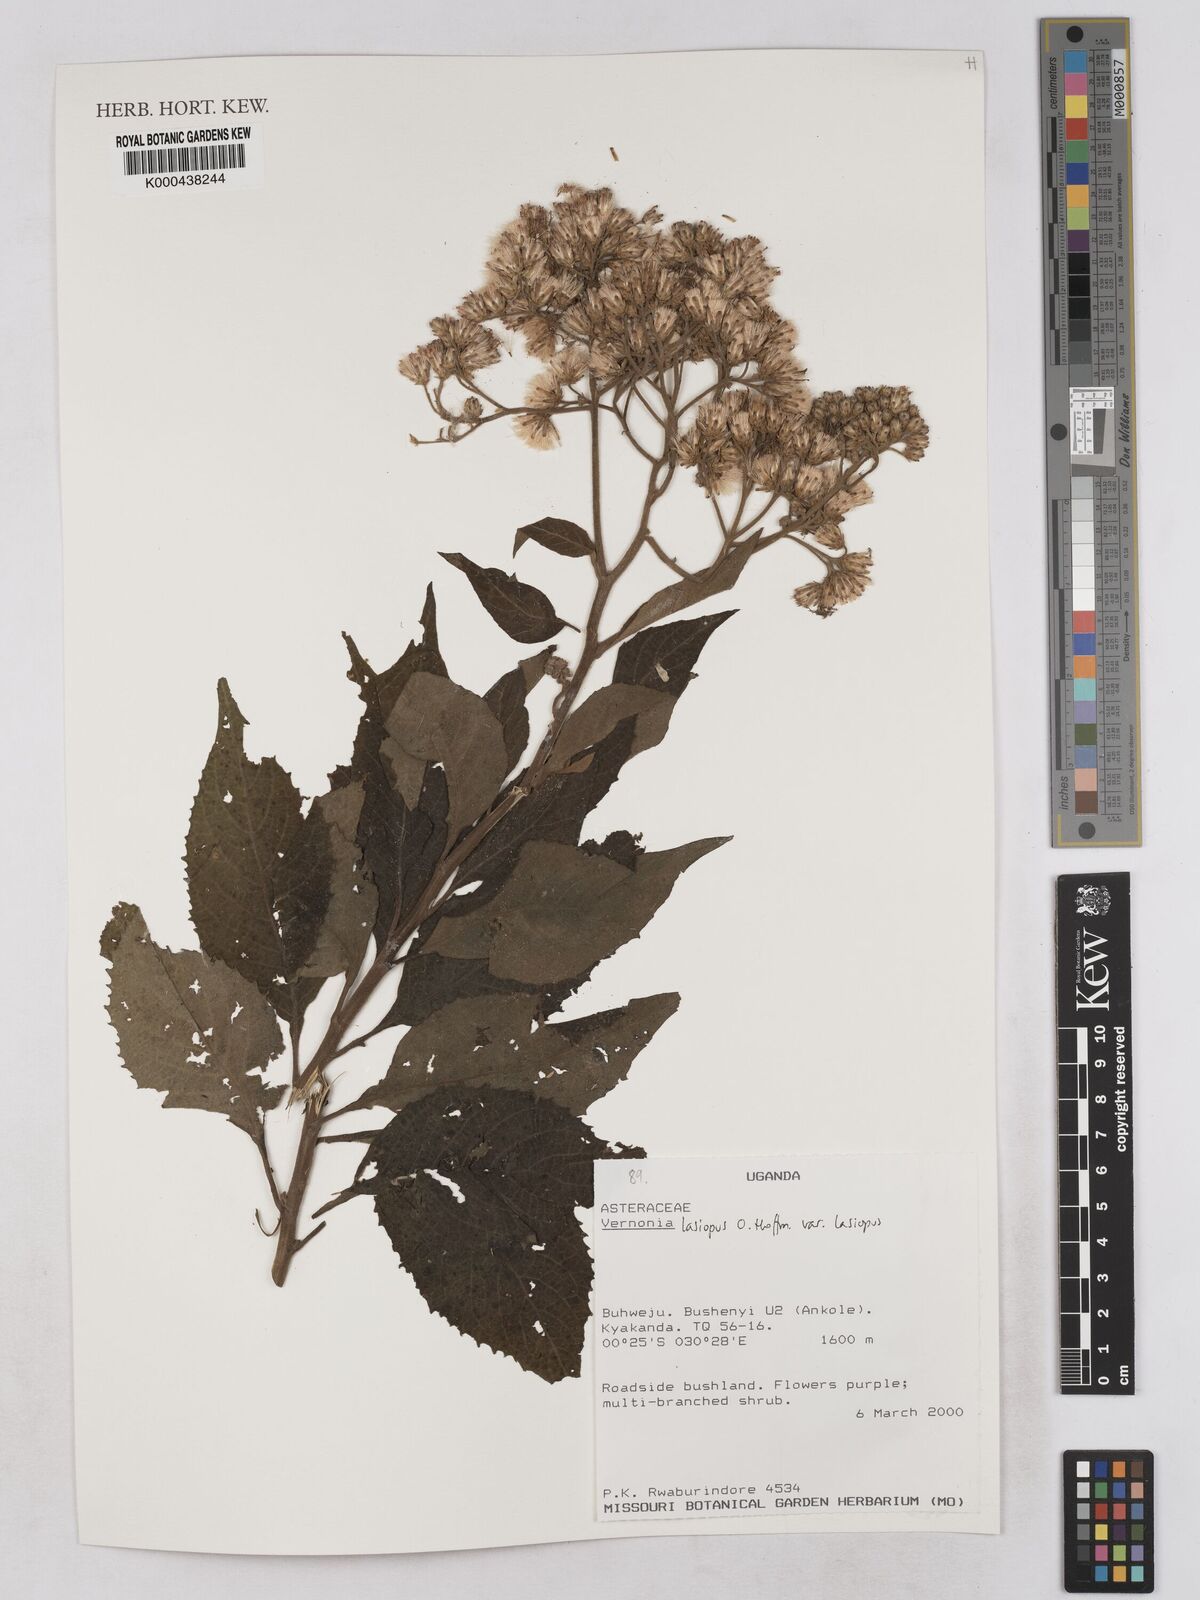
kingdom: Plantae
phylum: Tracheophyta
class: Magnoliopsida
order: Asterales
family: Asteraceae
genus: Baccharoides
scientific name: Baccharoides lasiopus
